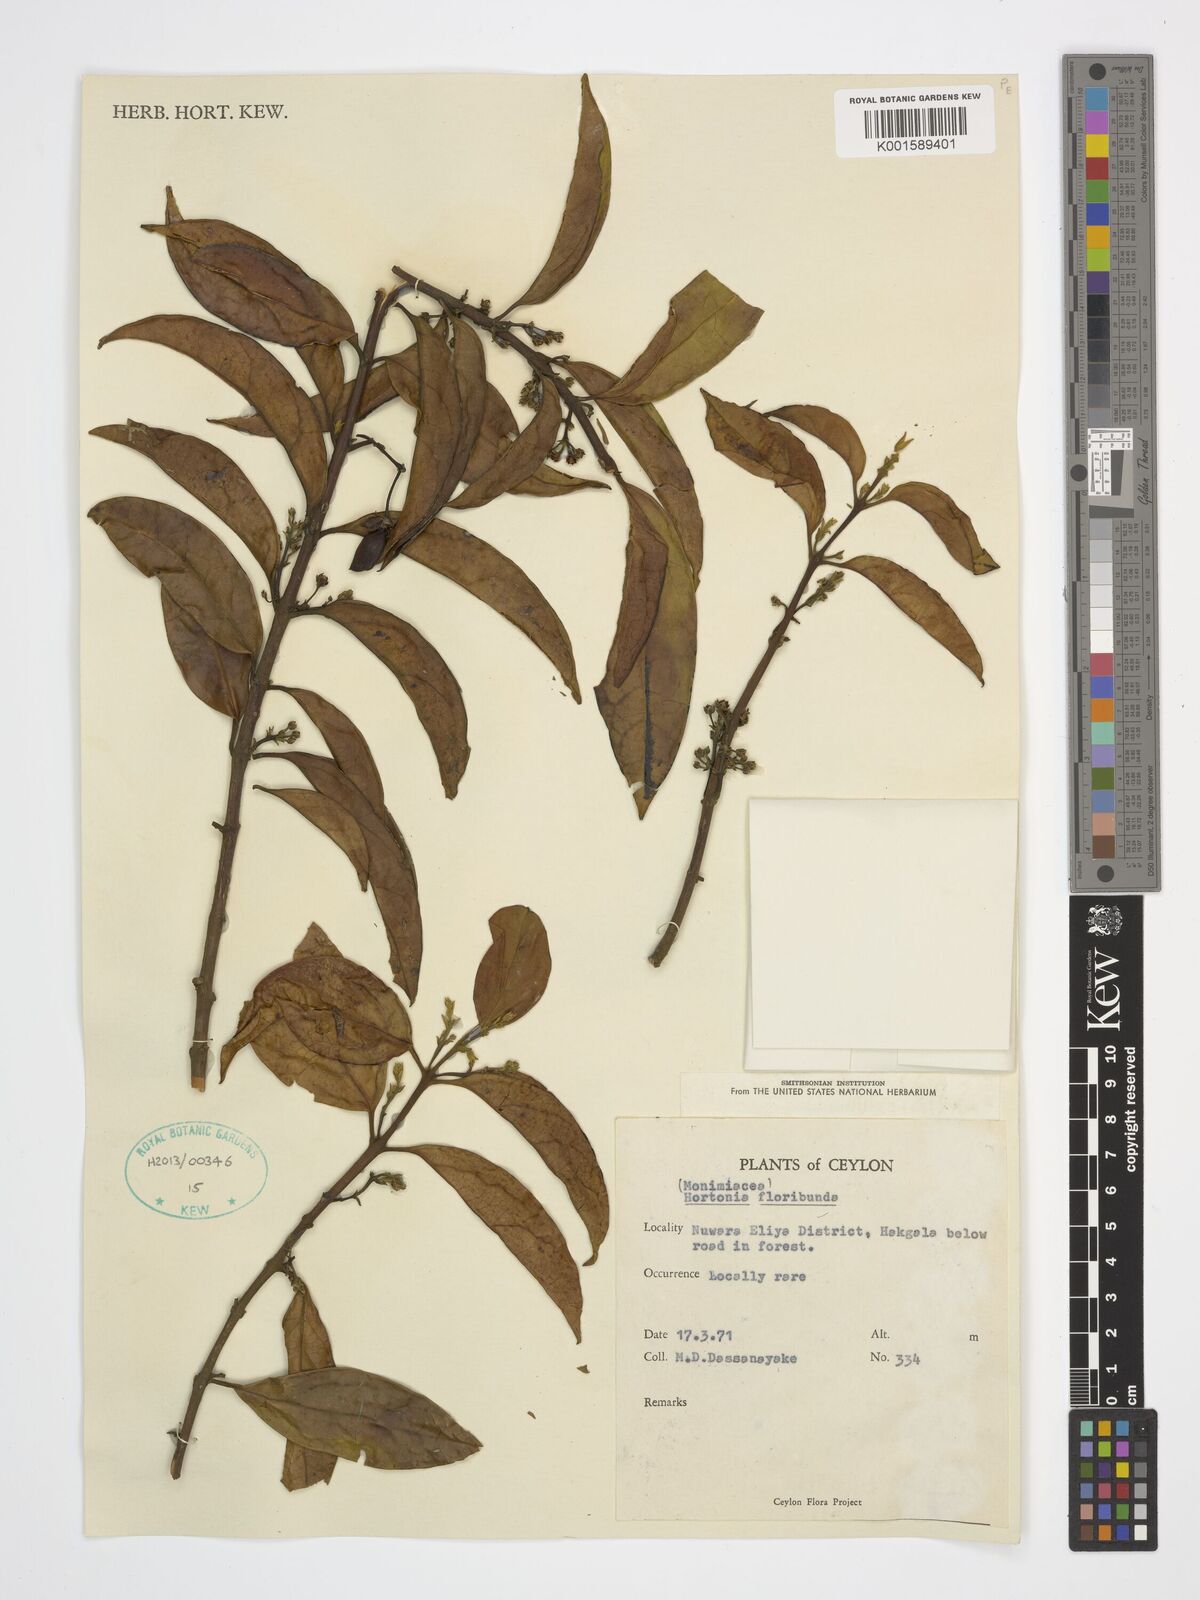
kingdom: Plantae
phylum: Tracheophyta
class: Magnoliopsida
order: Laurales
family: Monimiaceae
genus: Hortonia
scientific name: Hortonia floribunda
